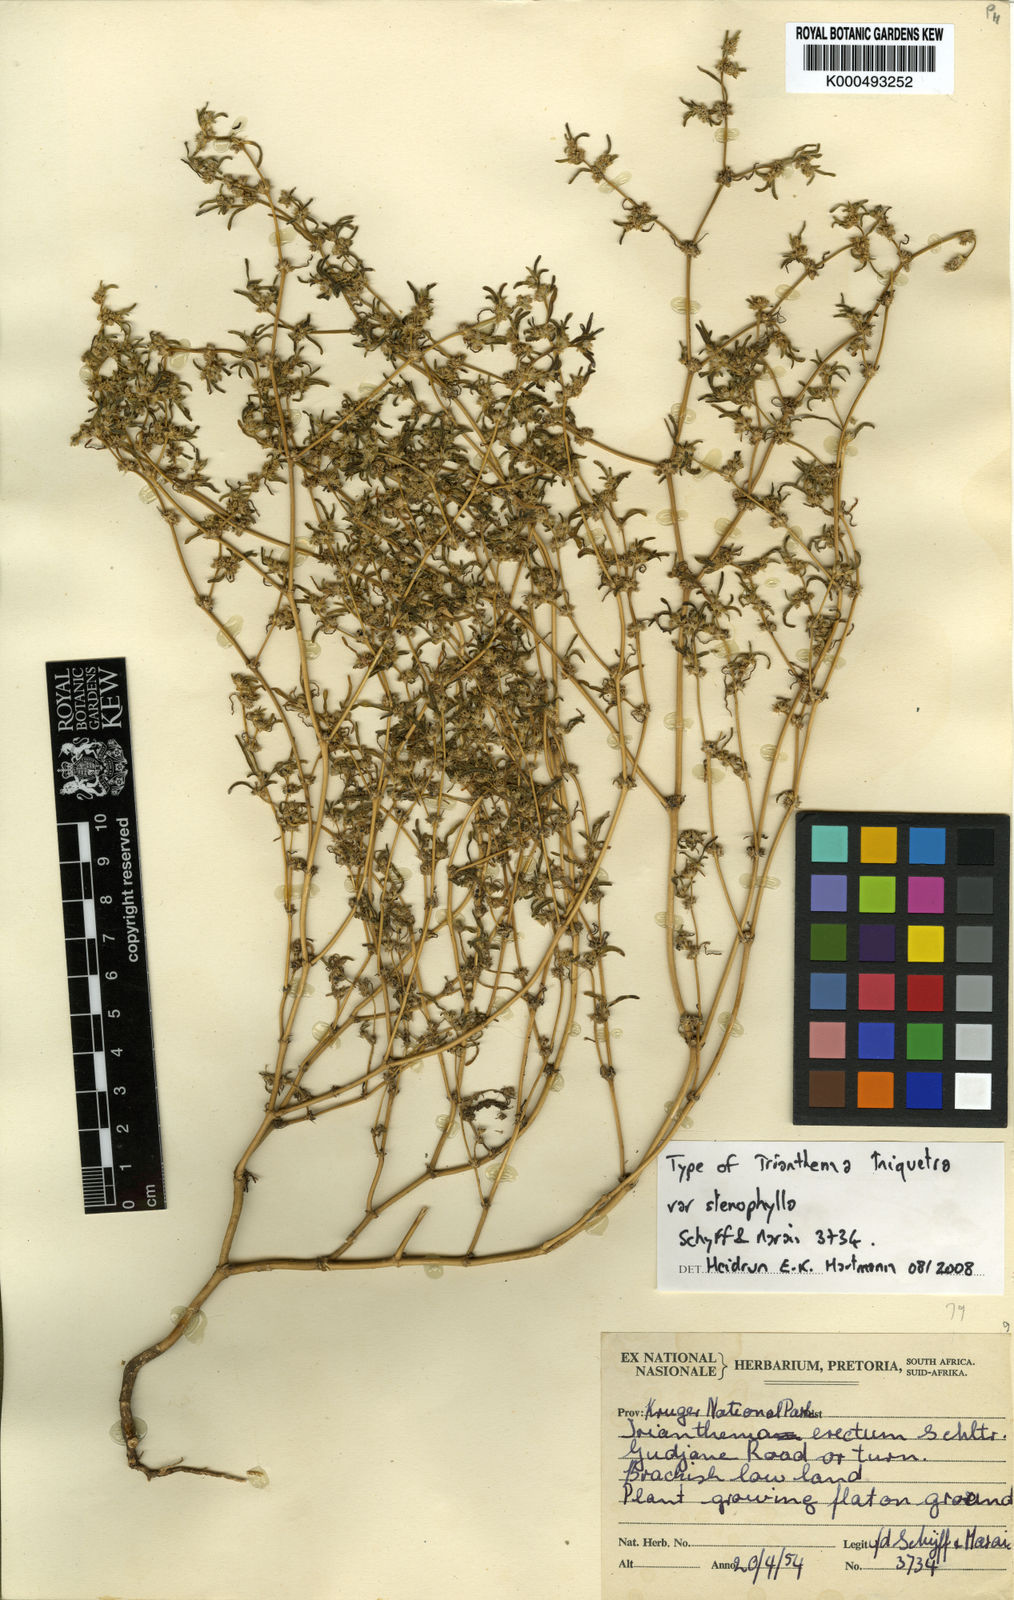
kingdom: Plantae
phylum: Tracheophyta
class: Magnoliopsida
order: Caryophyllales
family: Aizoaceae
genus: Trianthema
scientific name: Trianthema triquetrum
